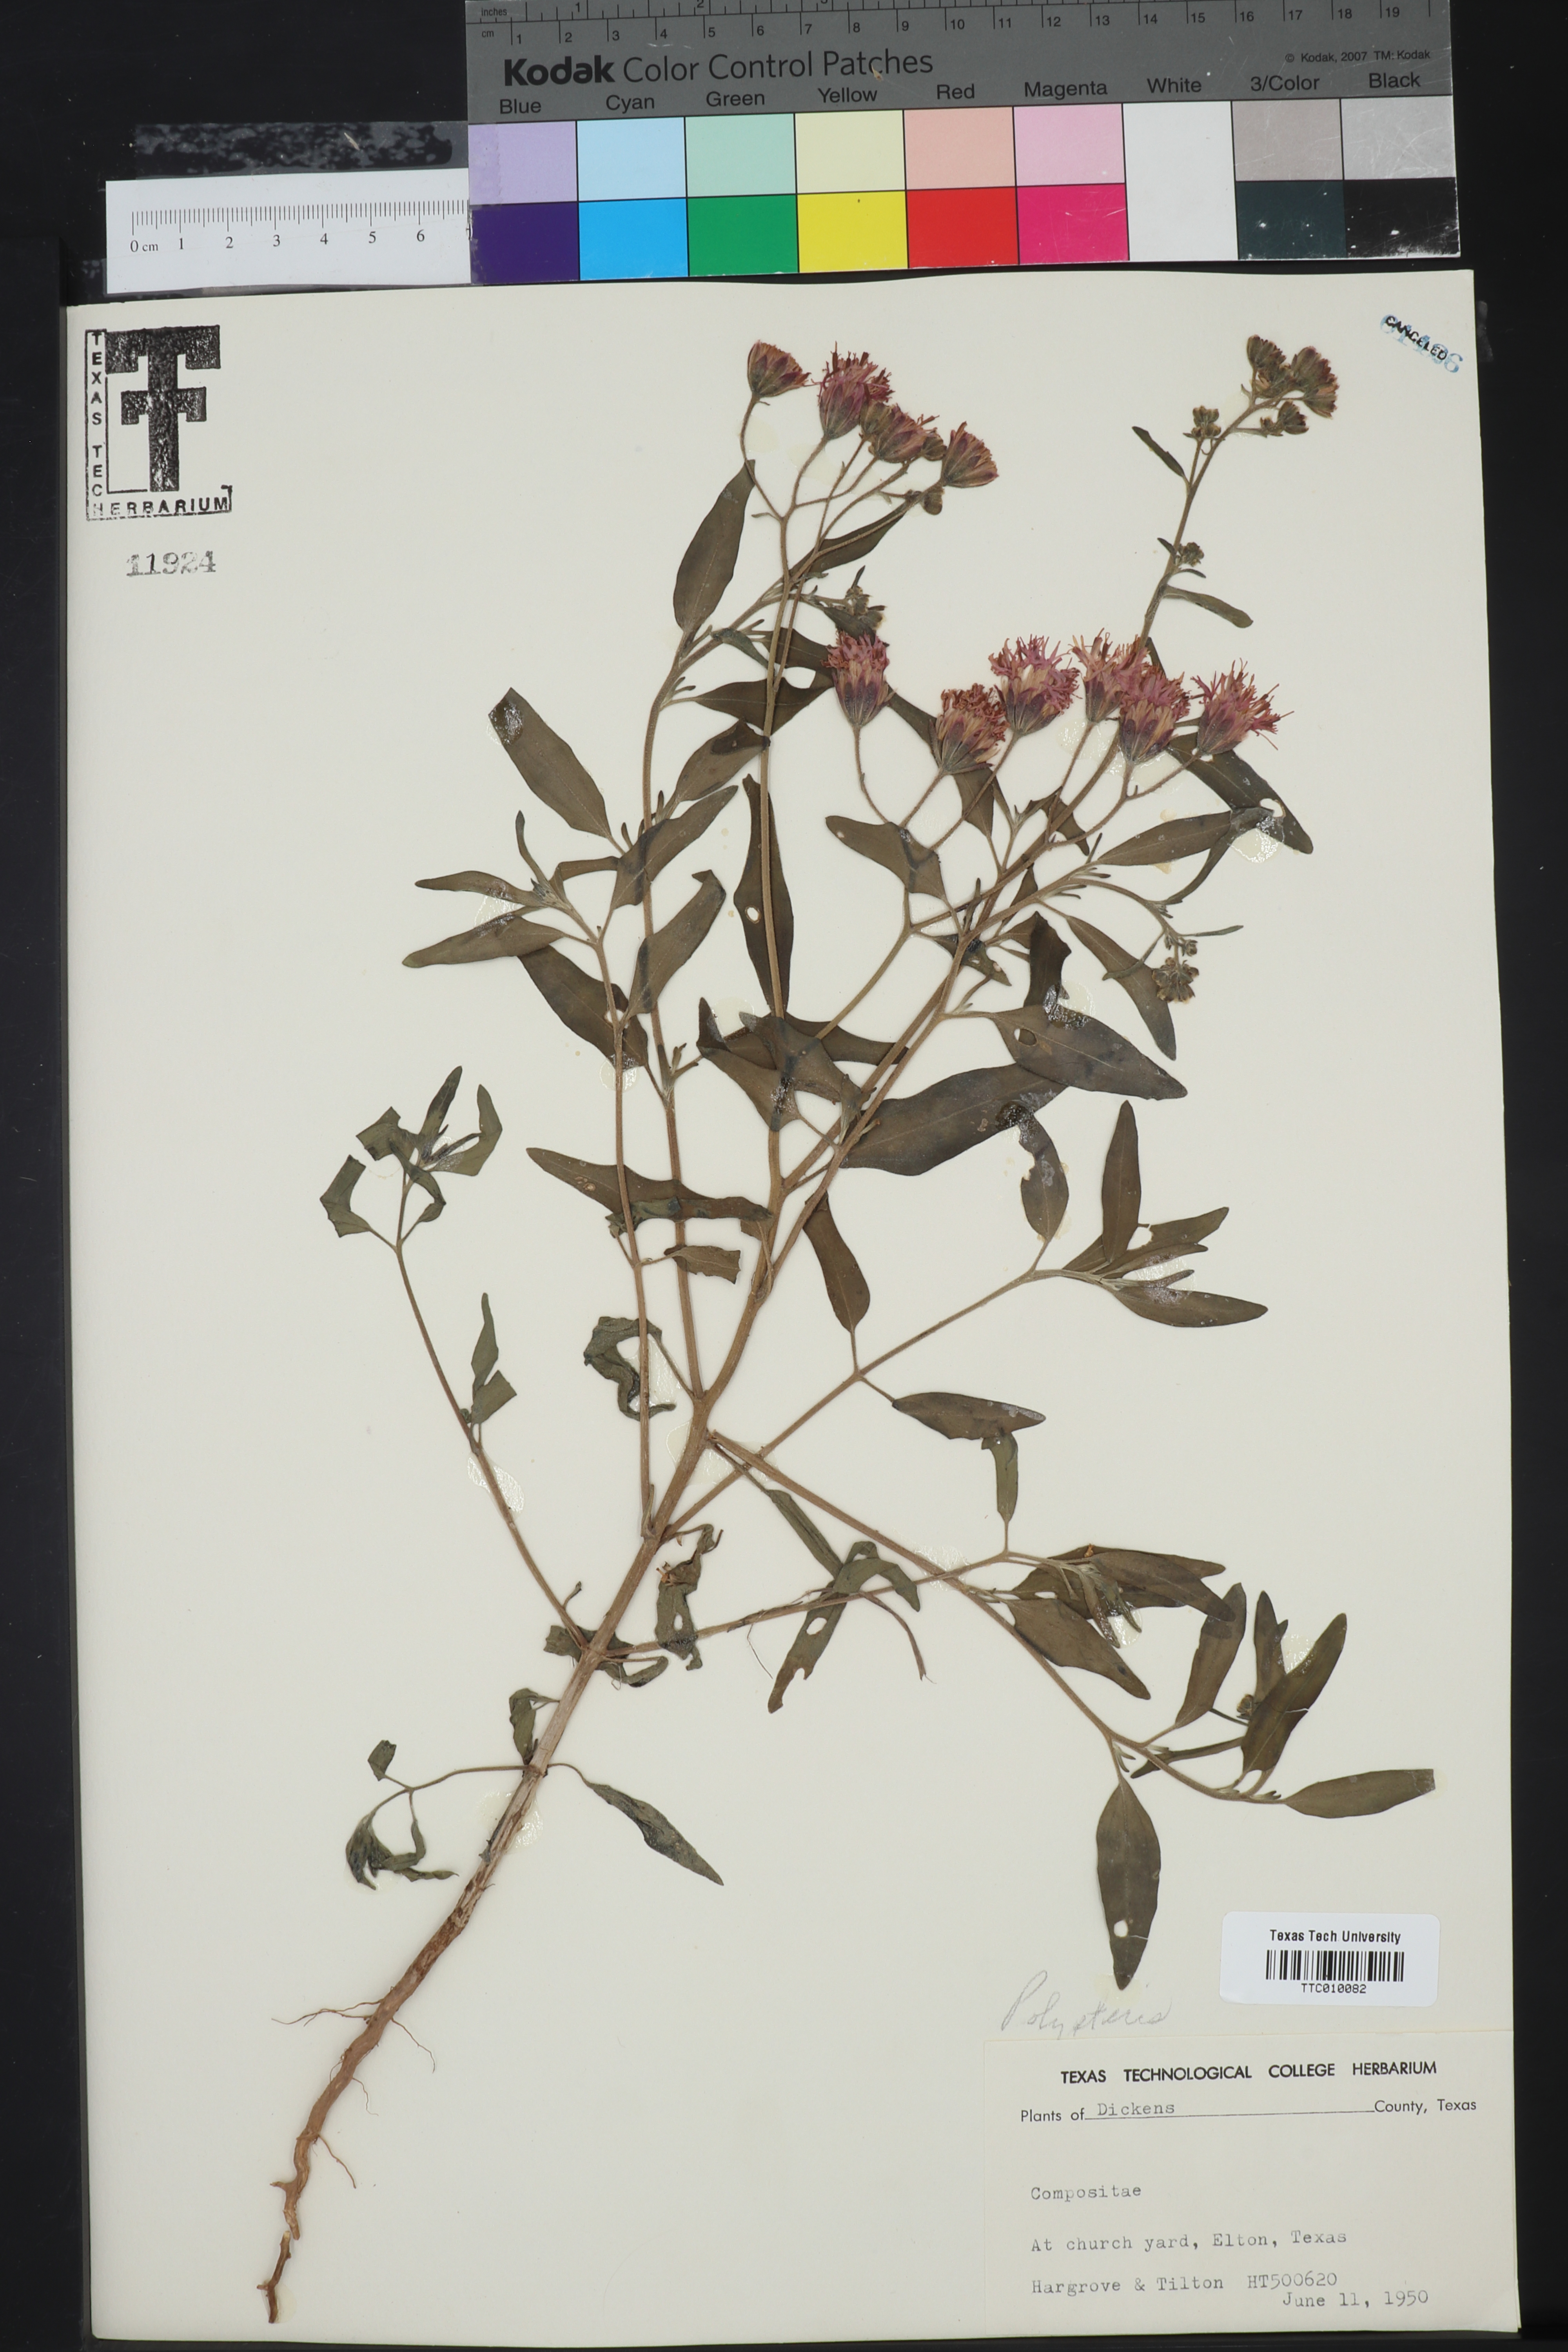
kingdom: Plantae
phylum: Tracheophyta
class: Magnoliopsida
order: Asterales
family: Asteraceae
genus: Palafoxia
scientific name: Palafoxia
